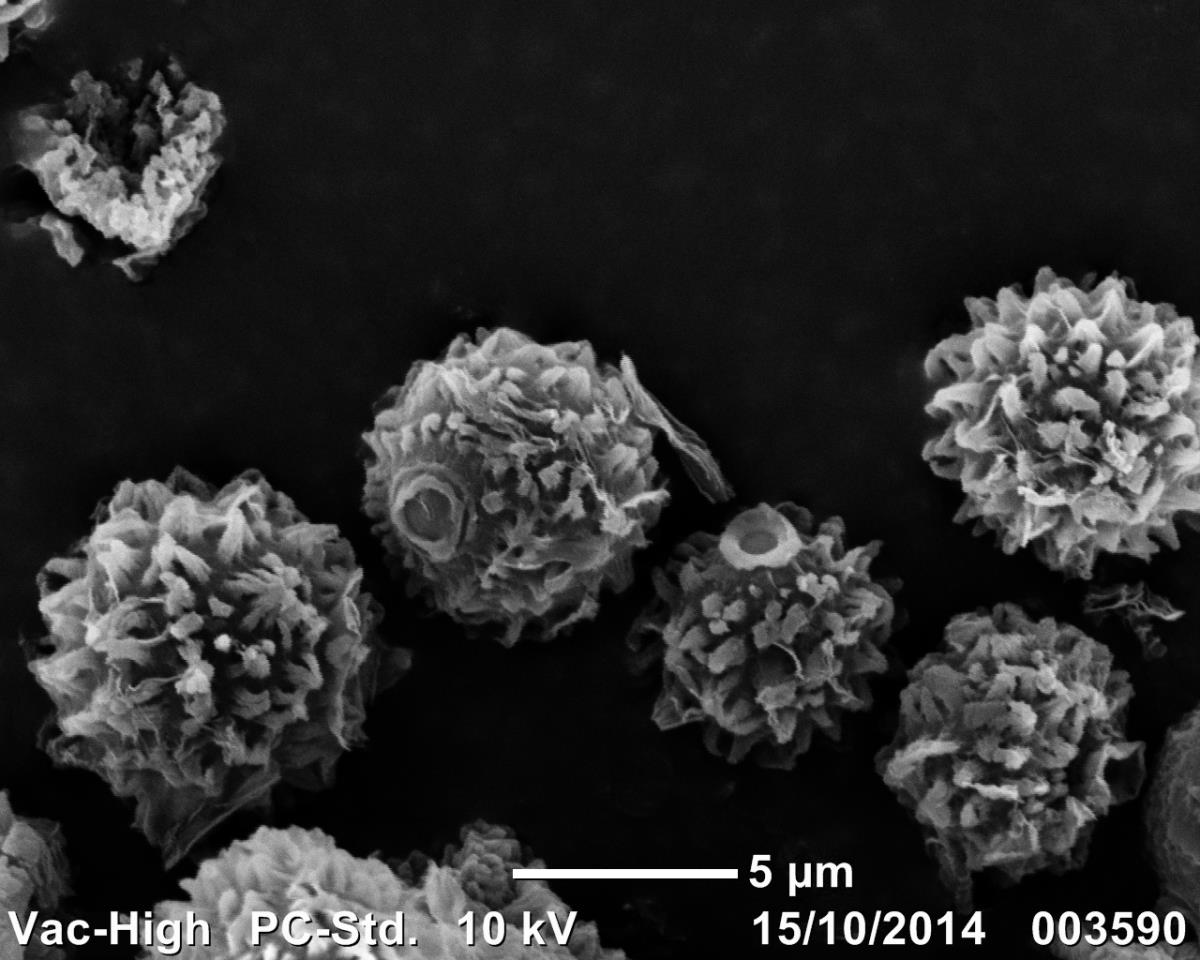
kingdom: Fungi
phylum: Basidiomycota
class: Agaricomycetes
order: Boletales
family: Sclerodermataceae
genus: Pisolithus
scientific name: Pisolithus
